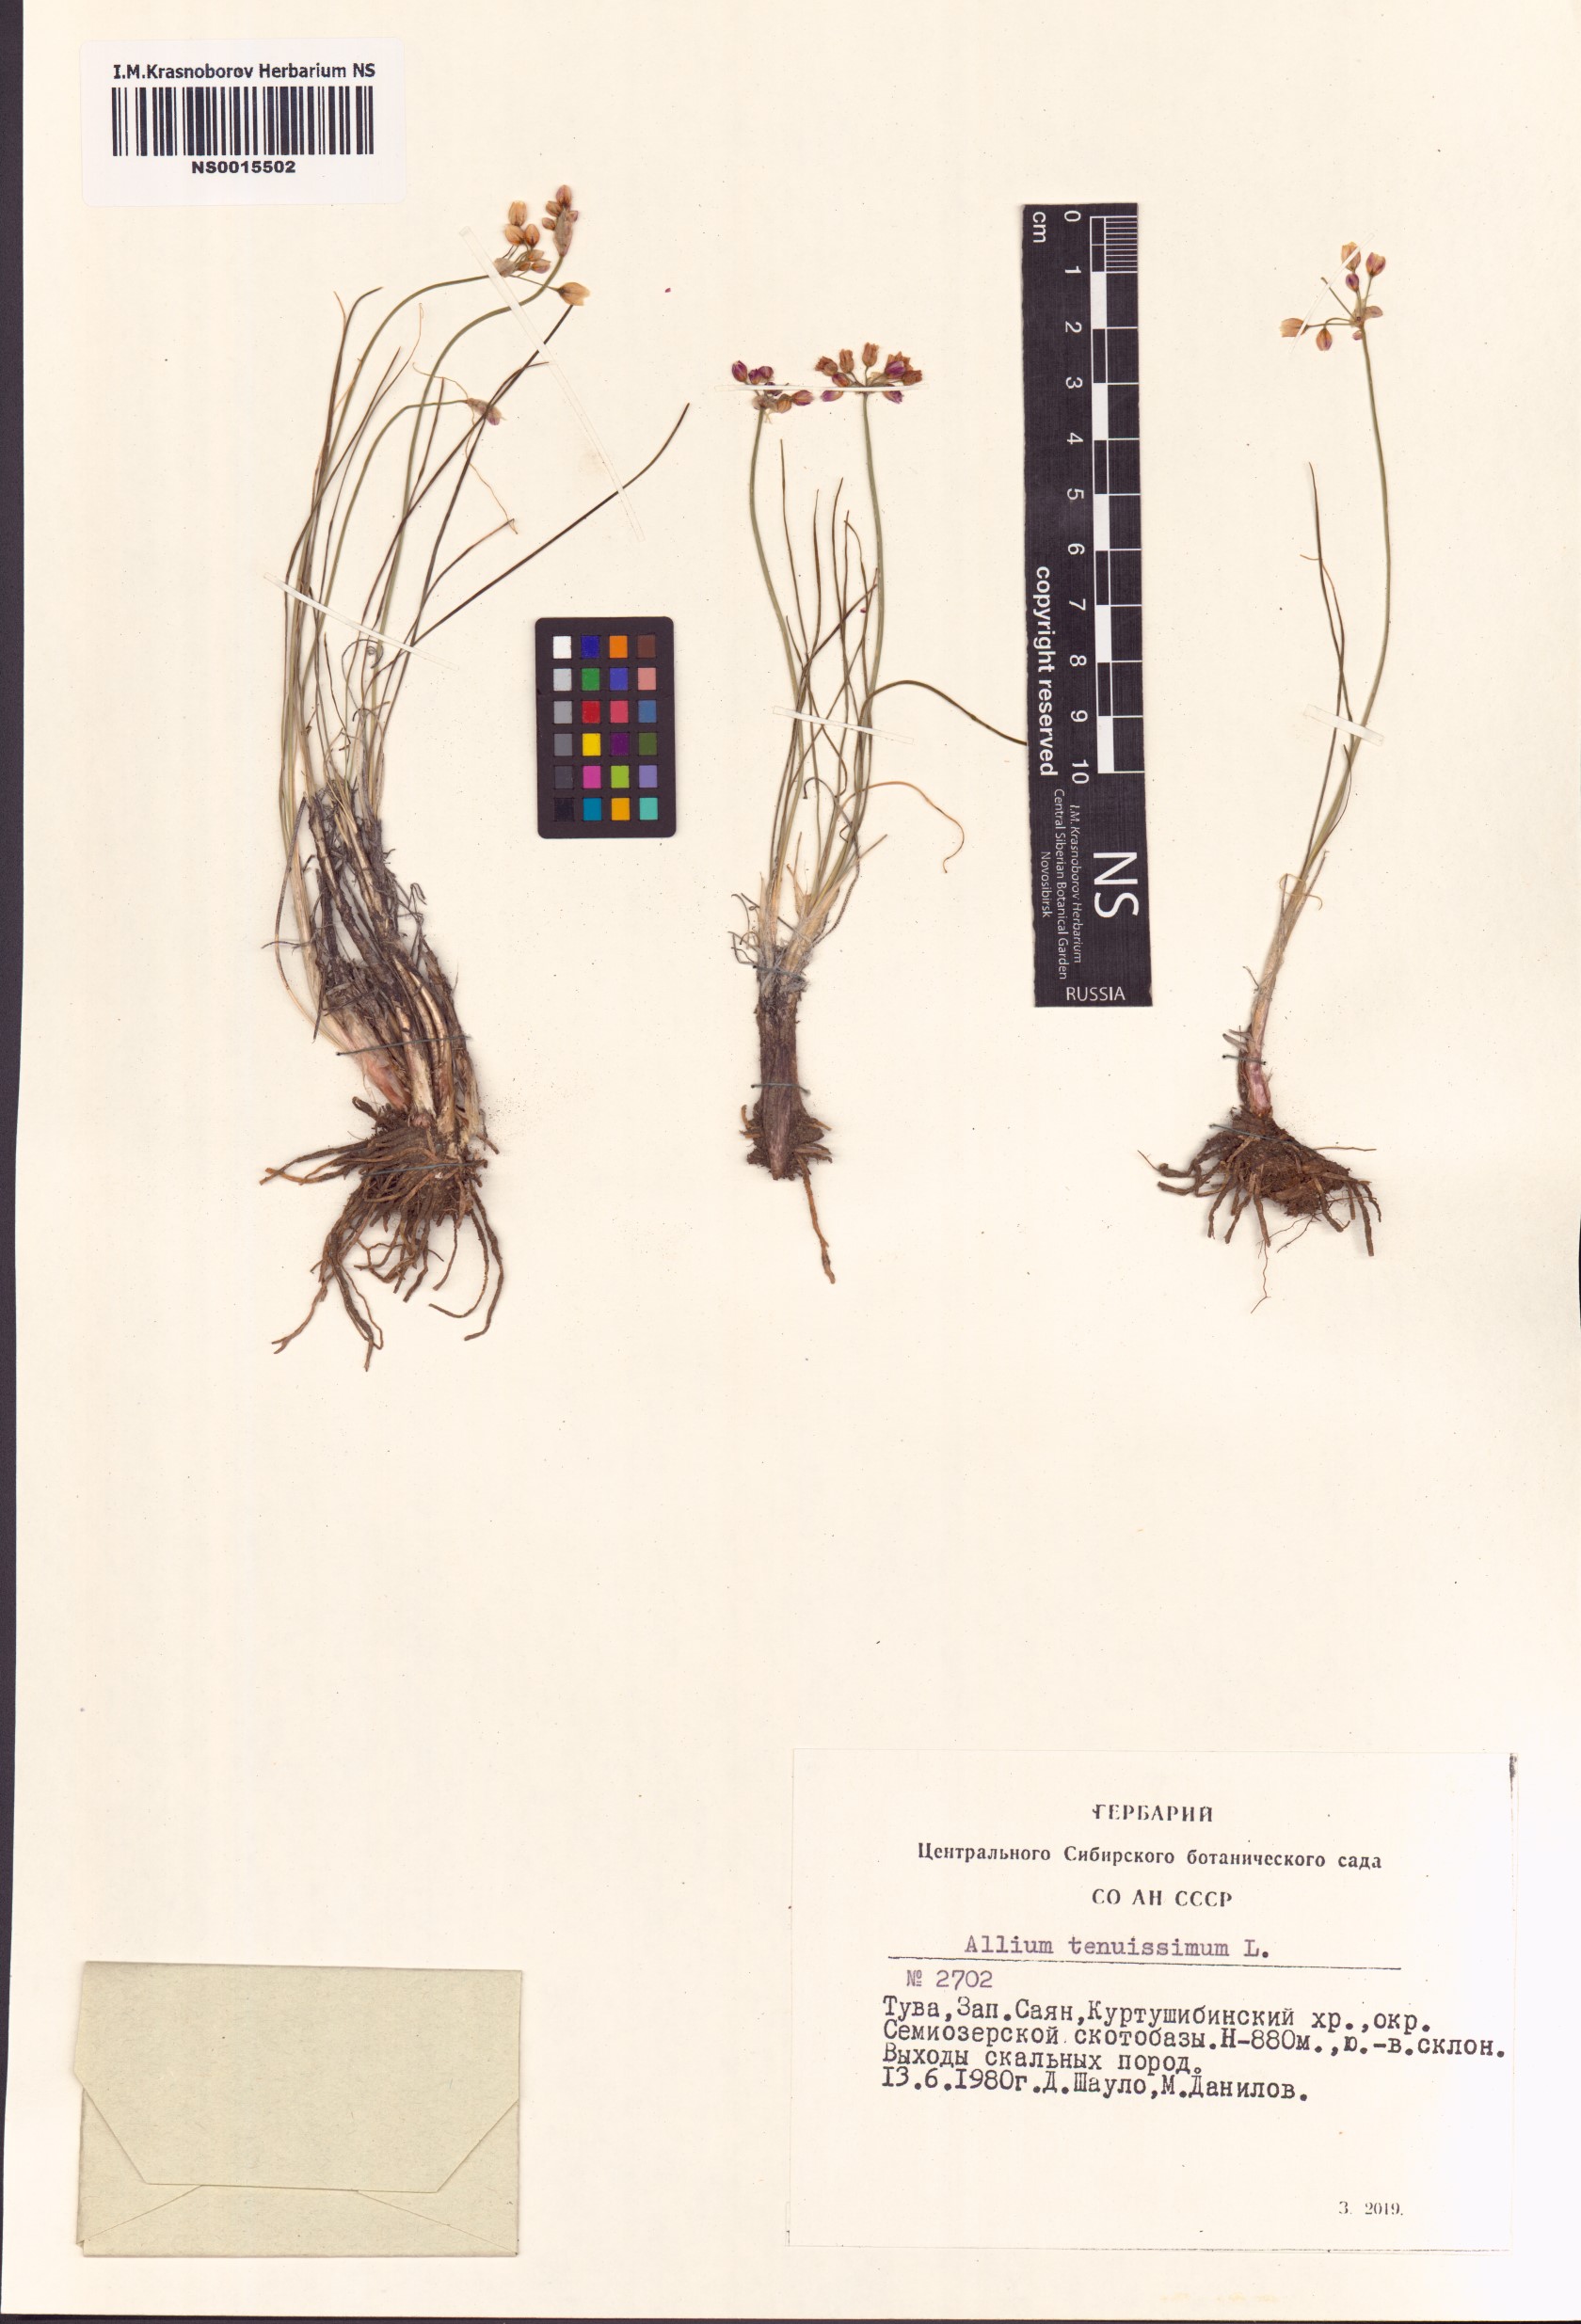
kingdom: Plantae
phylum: Tracheophyta
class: Liliopsida
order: Asparagales
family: Amaryllidaceae
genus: Allium
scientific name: Allium tenuissimum
